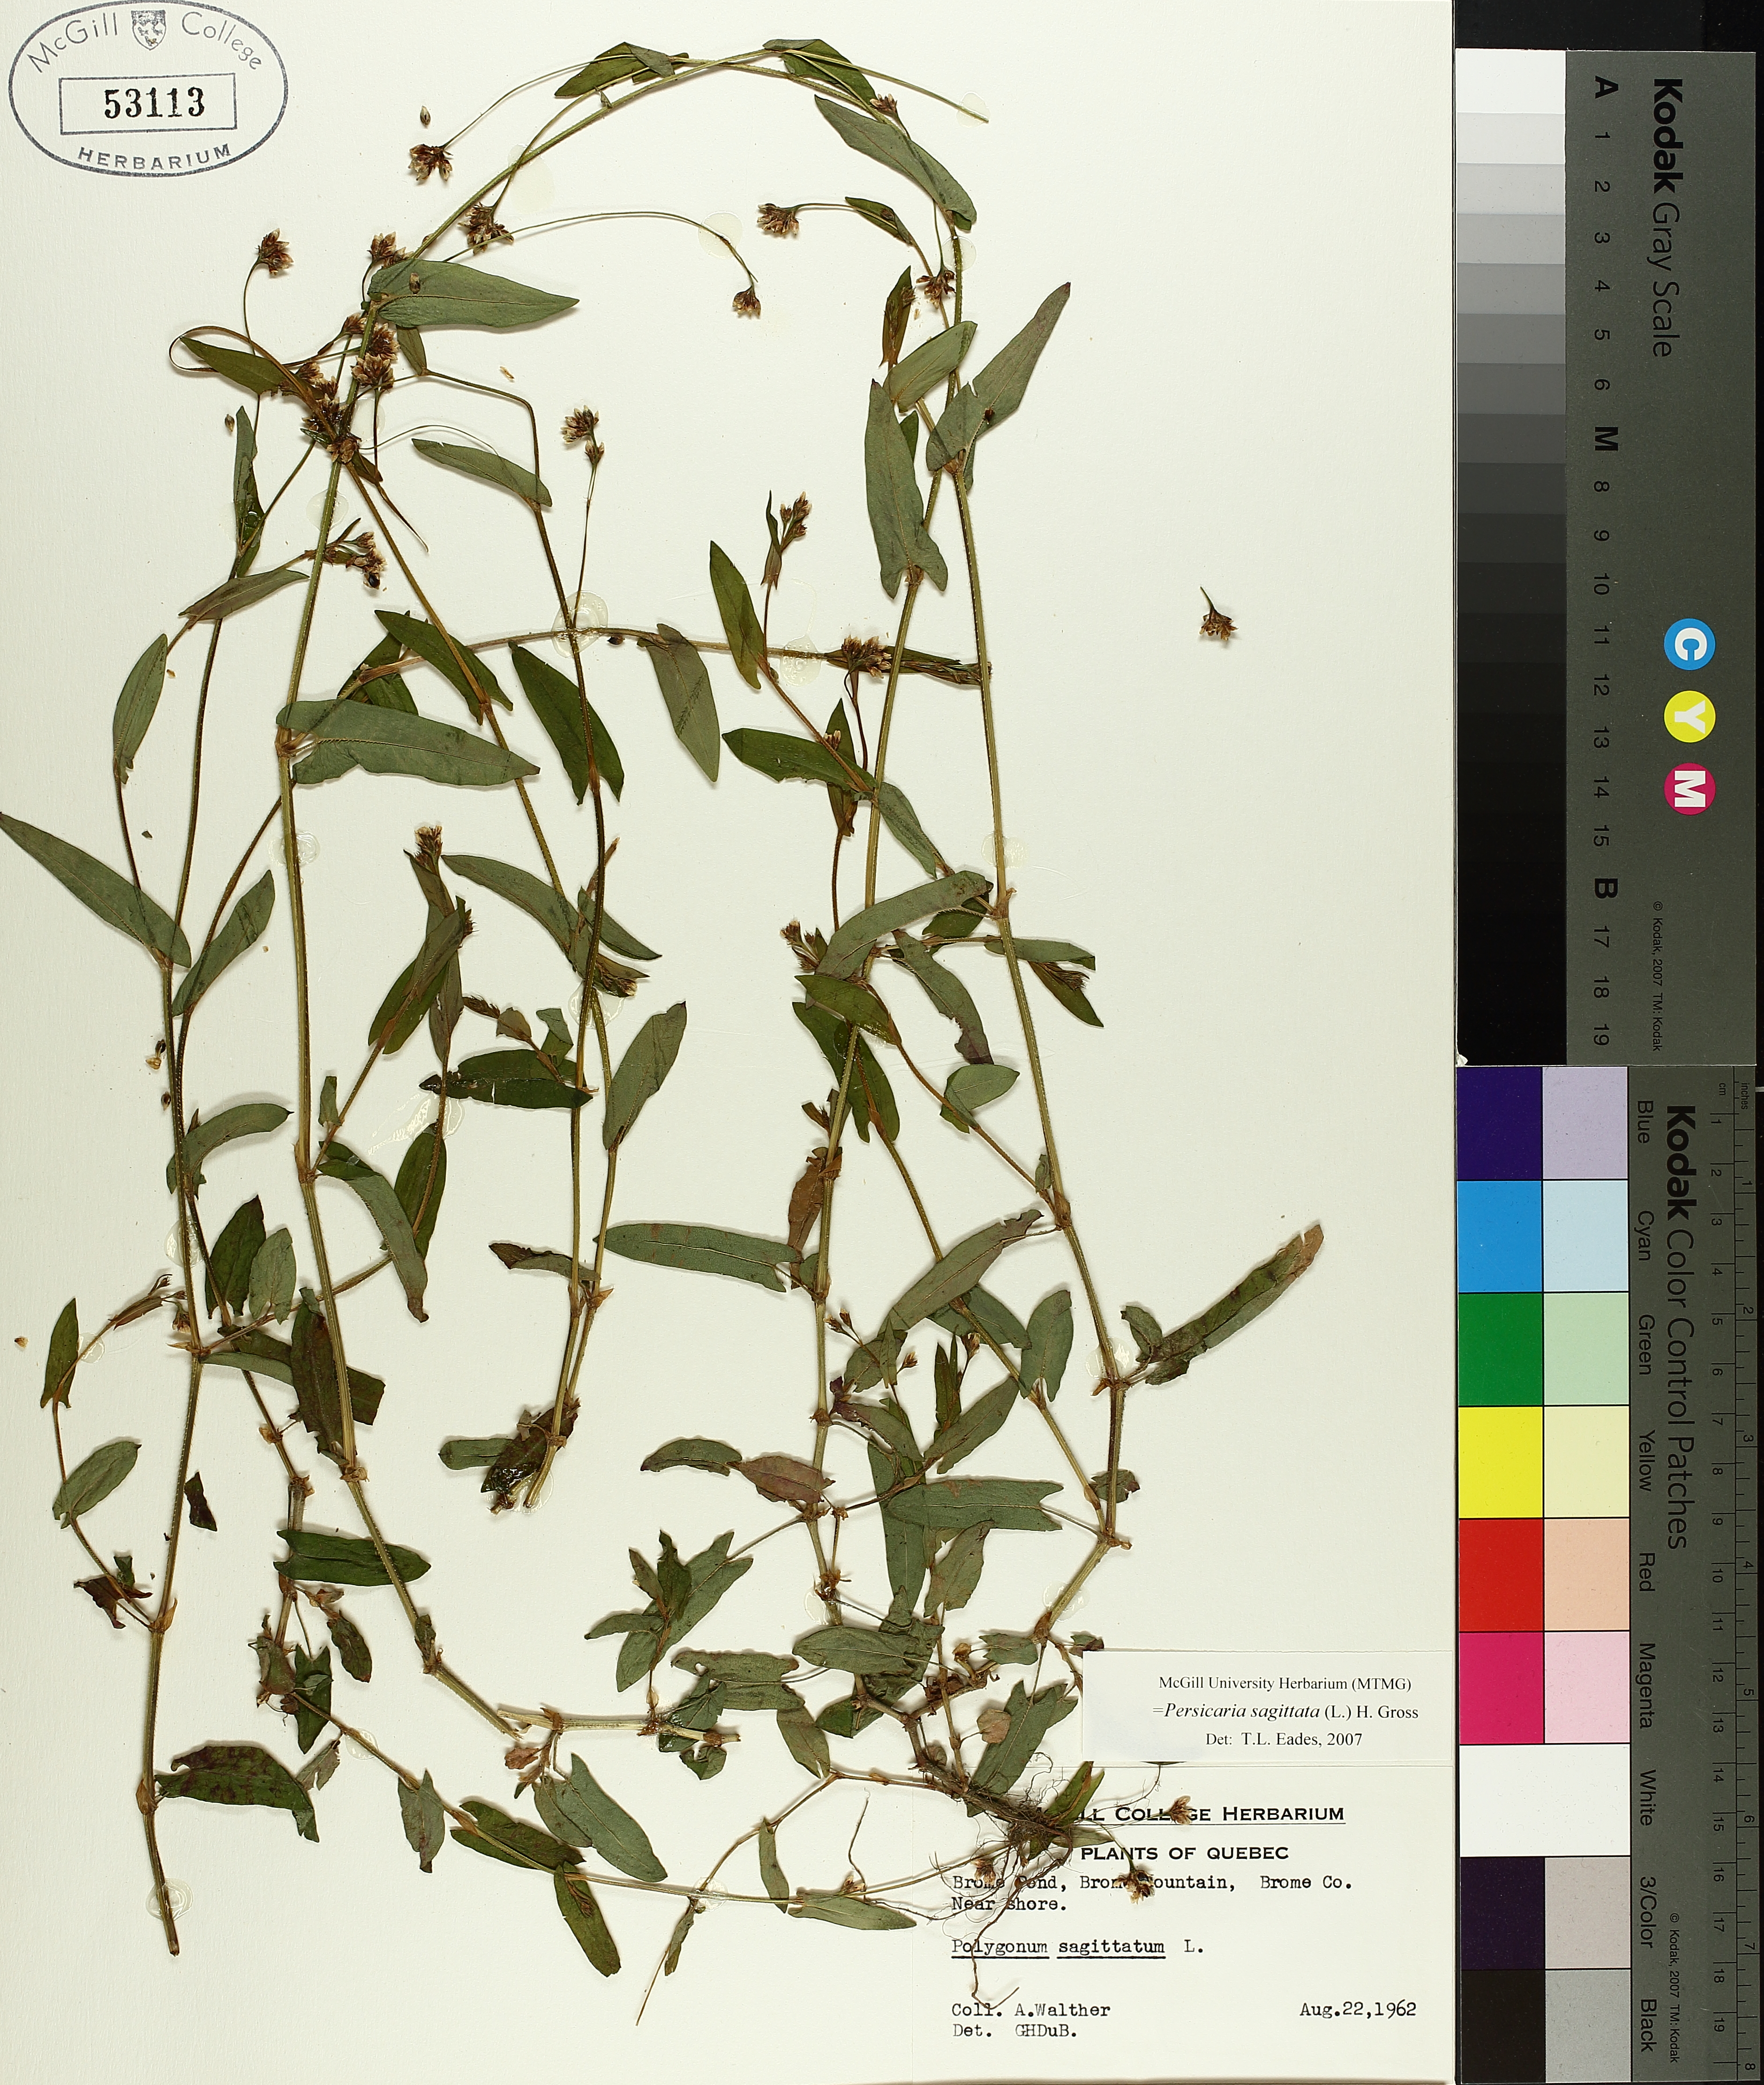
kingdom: Plantae
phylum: Tracheophyta
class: Magnoliopsida
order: Caryophyllales
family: Polygonaceae
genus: Persicaria
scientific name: Persicaria sagittata
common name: American tearthumb
